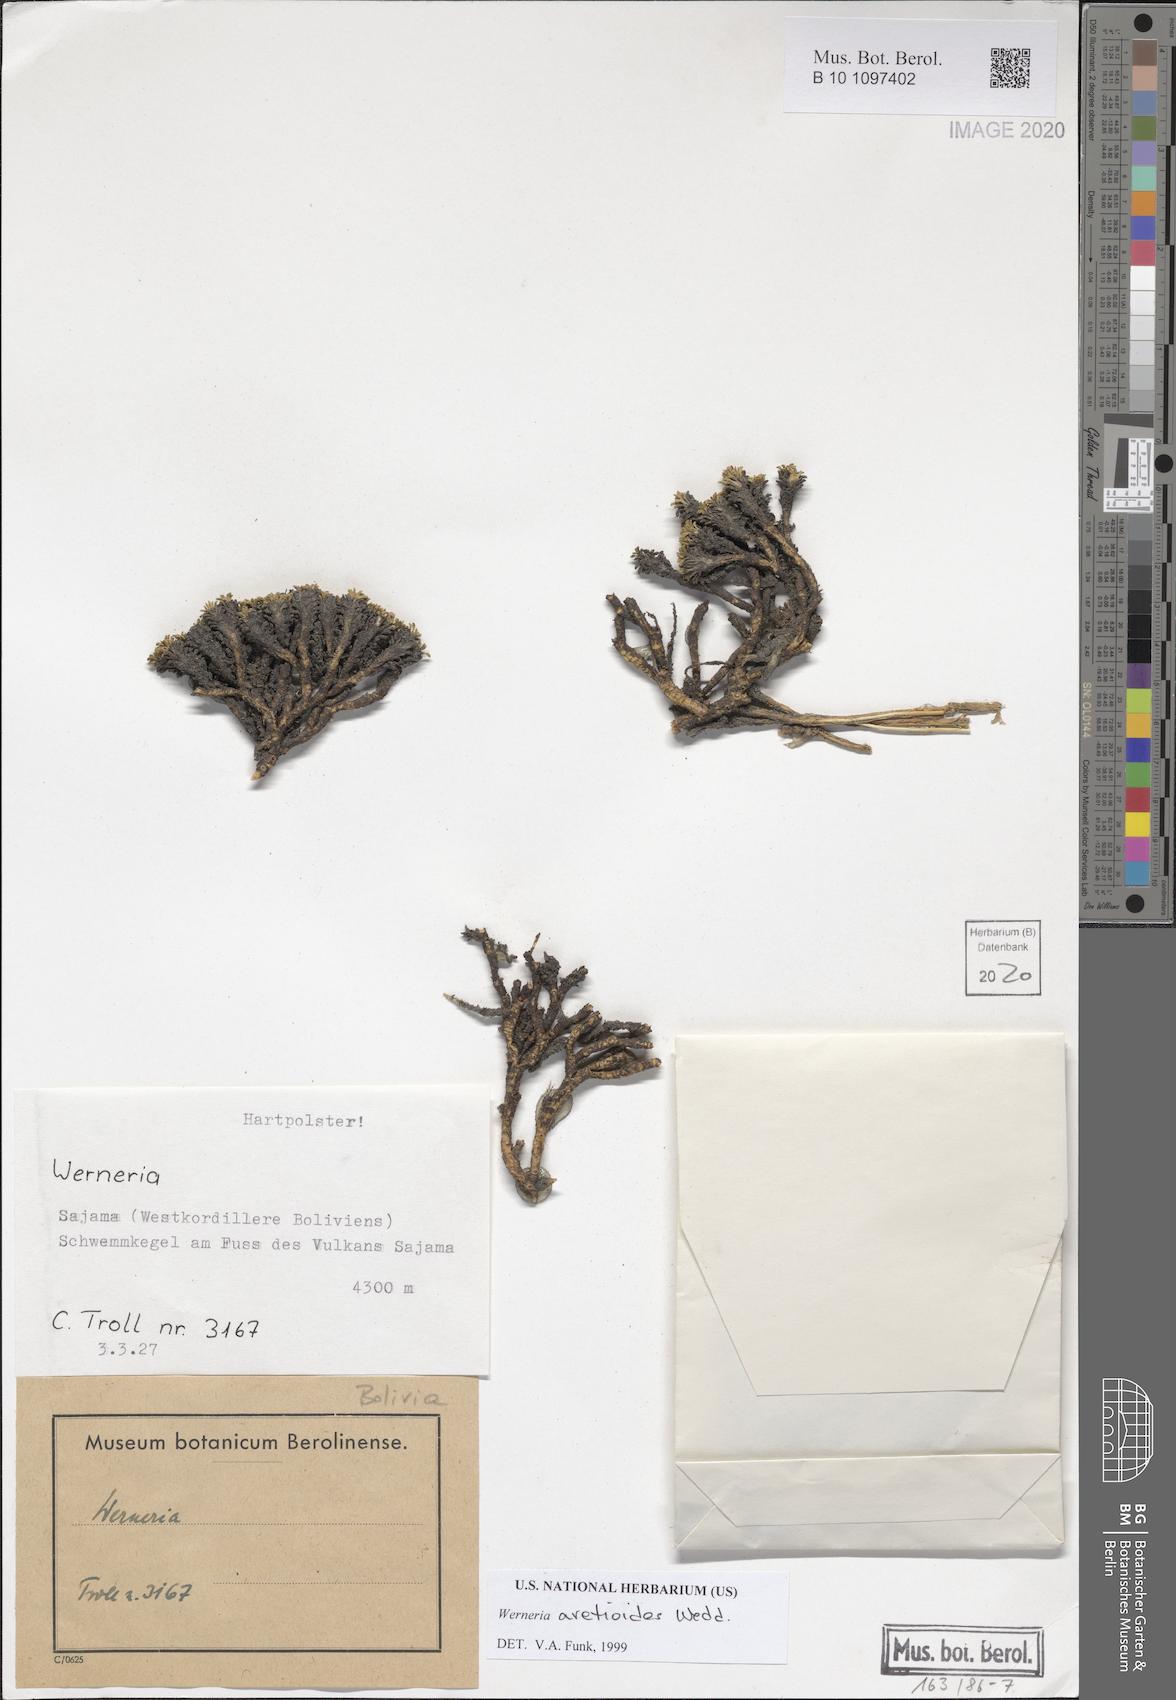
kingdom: Plantae
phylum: Tracheophyta
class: Magnoliopsida
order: Asterales
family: Asteraceae
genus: Rockhausenia
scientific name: Rockhausenia aretioides
